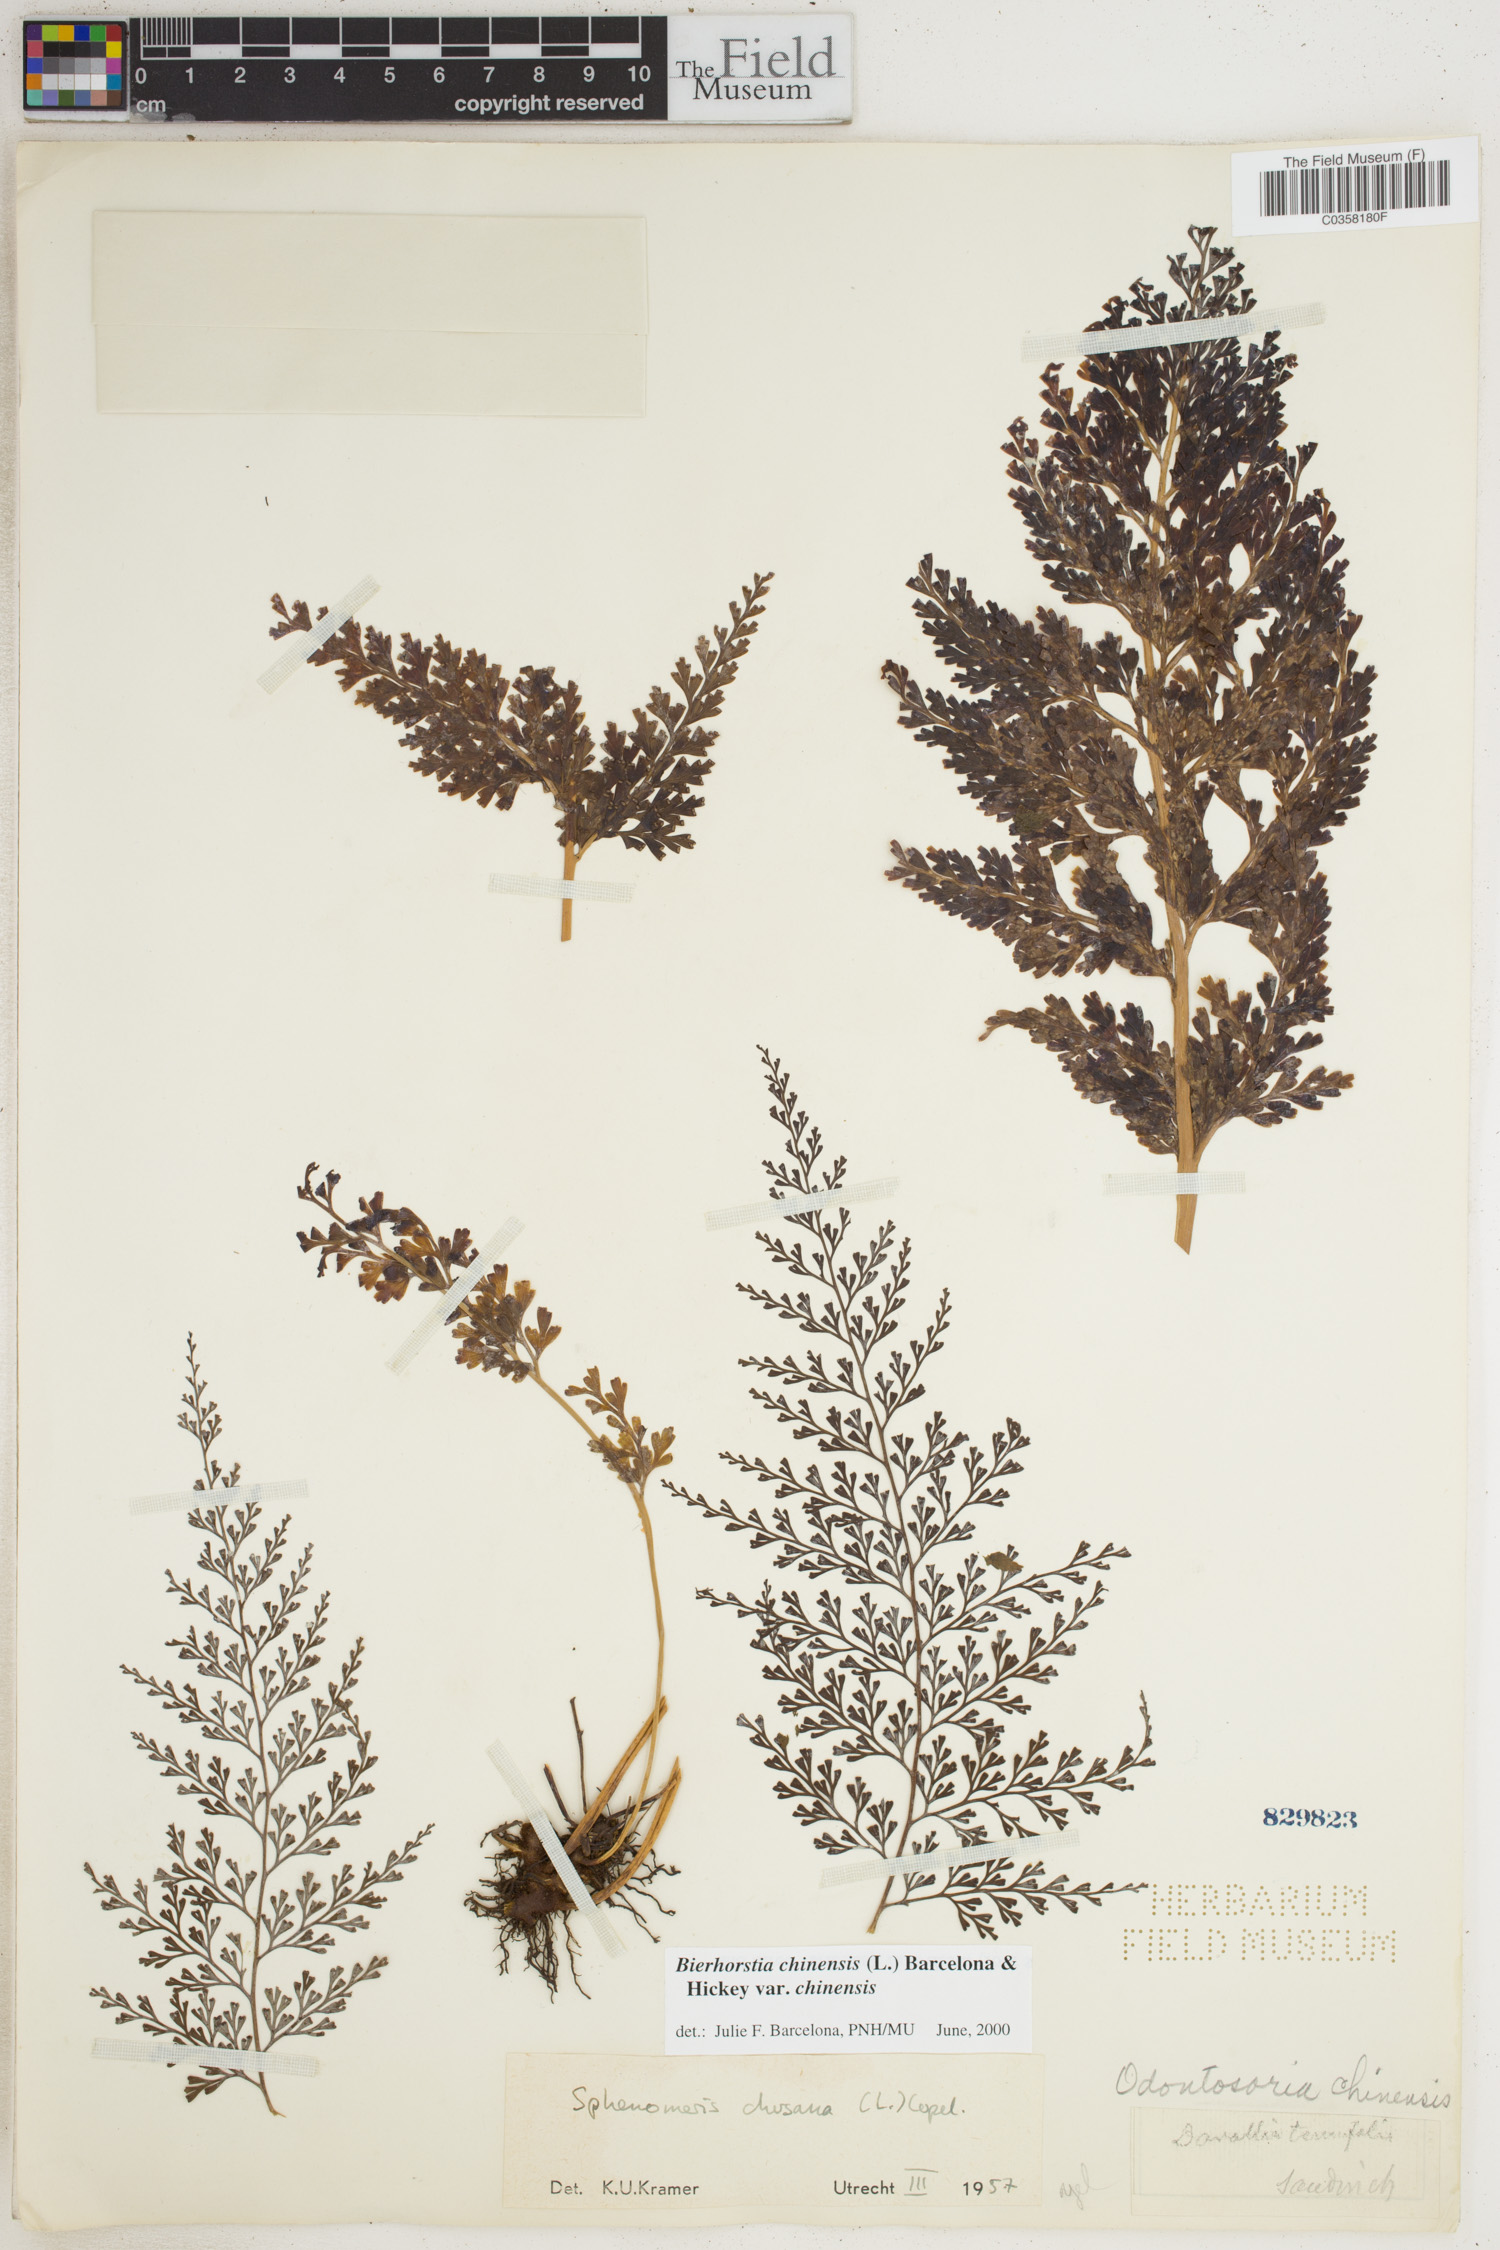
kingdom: Plantae
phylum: Tracheophyta
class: Polypodiopsida
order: Polypodiales
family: Lindsaeaceae
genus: Odontosoria
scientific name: Odontosoria chinensis
